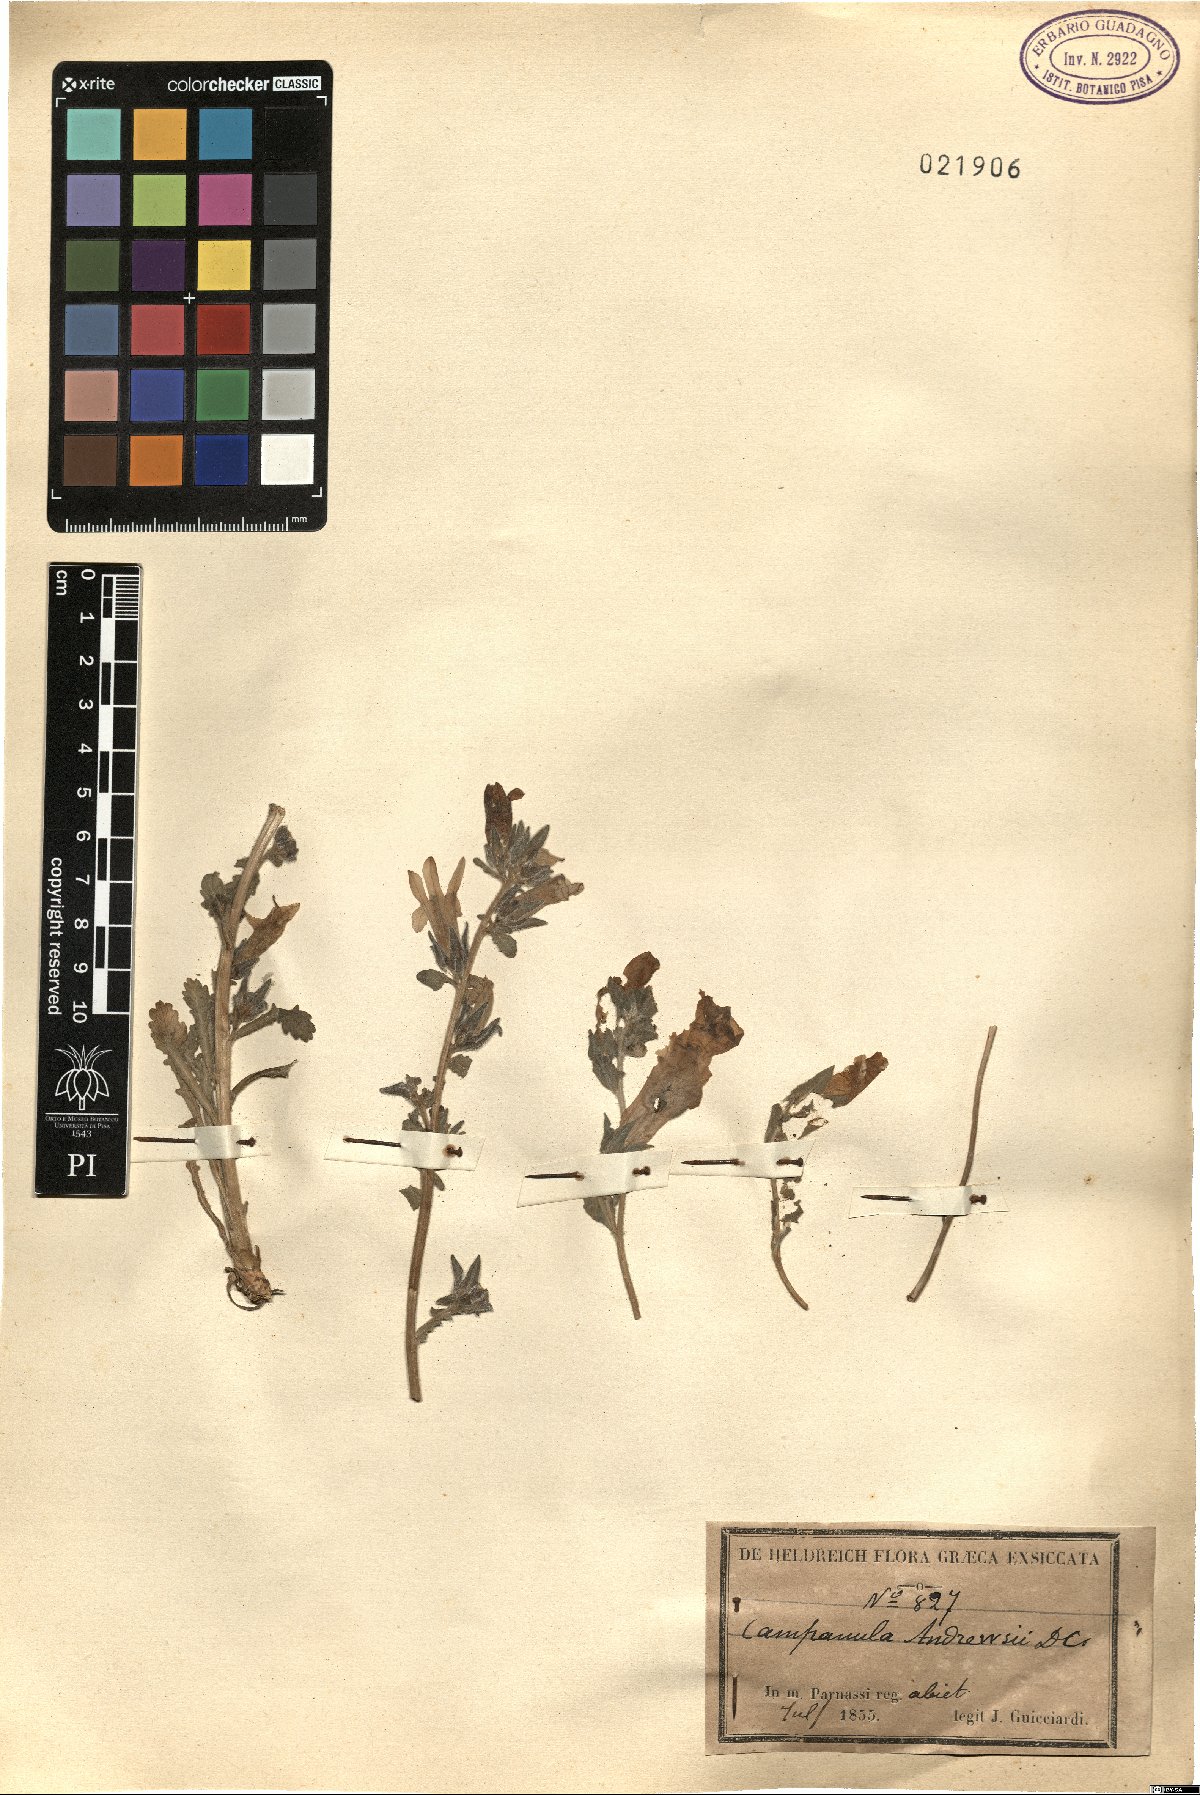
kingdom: Plantae
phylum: Tracheophyta
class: Magnoliopsida
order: Asterales
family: Campanulaceae
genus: Campanula
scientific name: Campanula andrewsii
